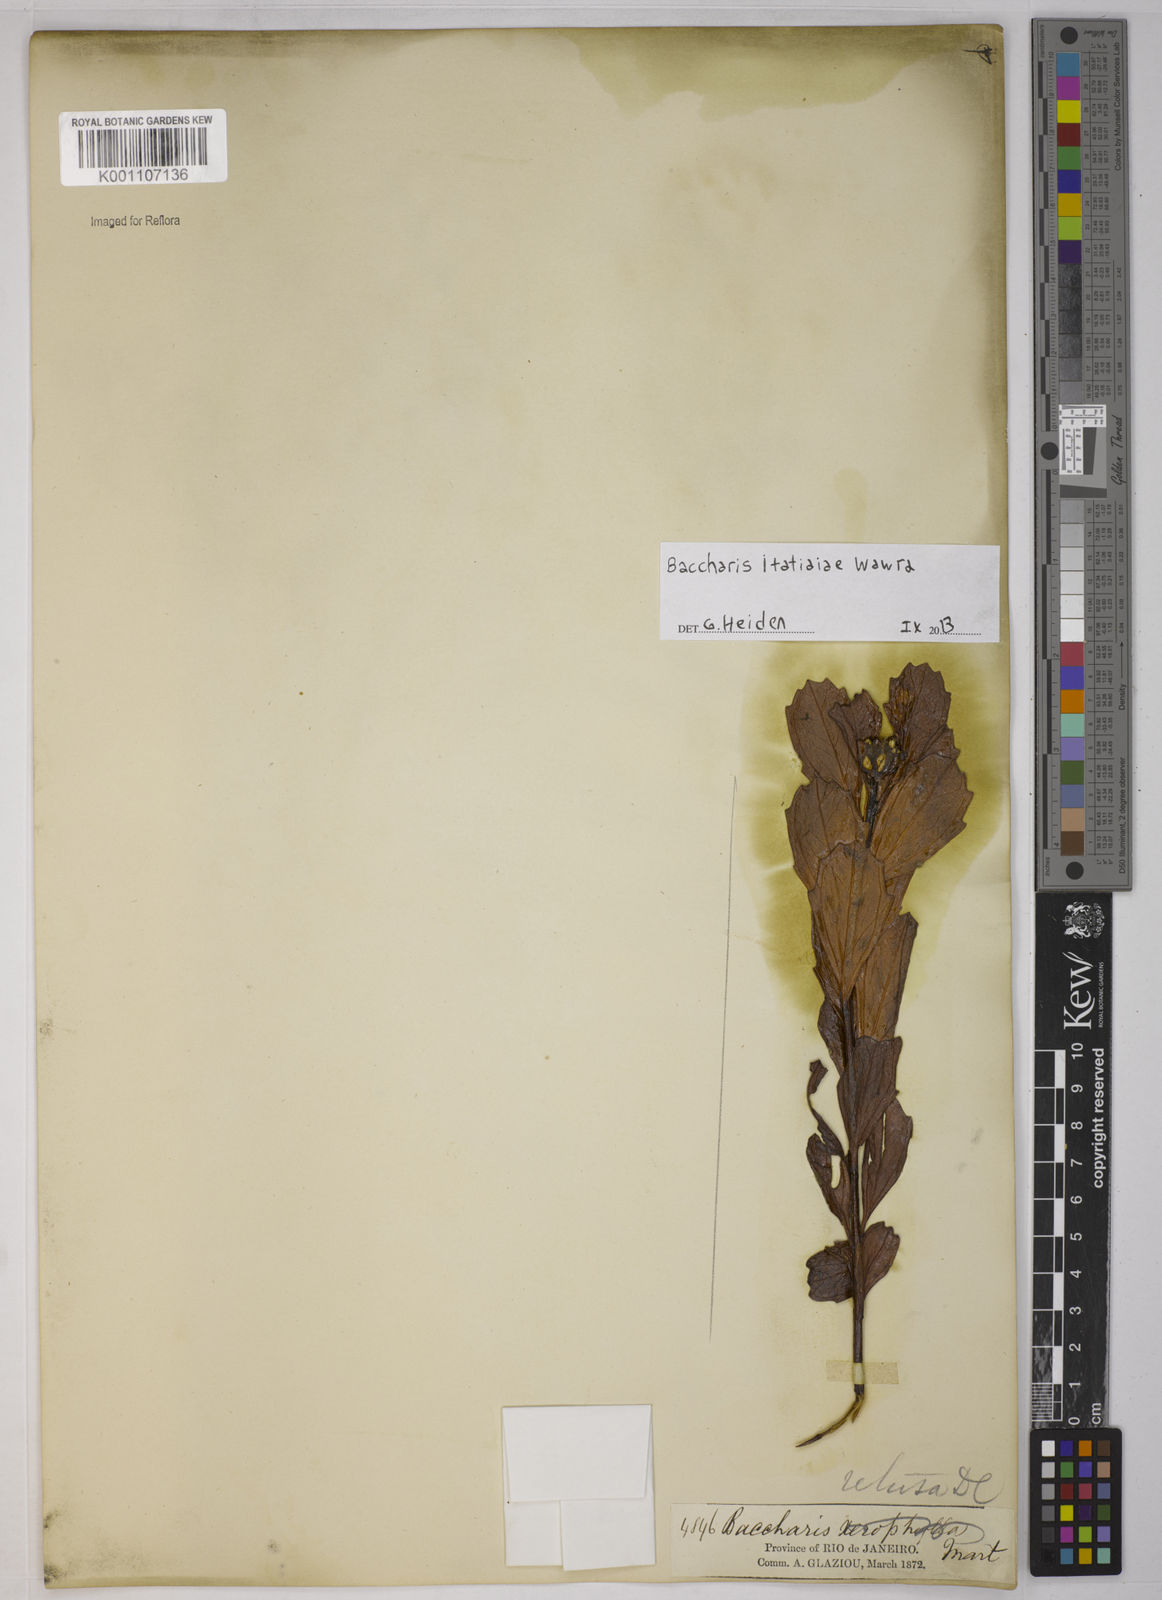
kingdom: Plantae
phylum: Tracheophyta
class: Magnoliopsida
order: Asterales
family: Asteraceae
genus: Baccharis
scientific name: Baccharis itatiaiae
